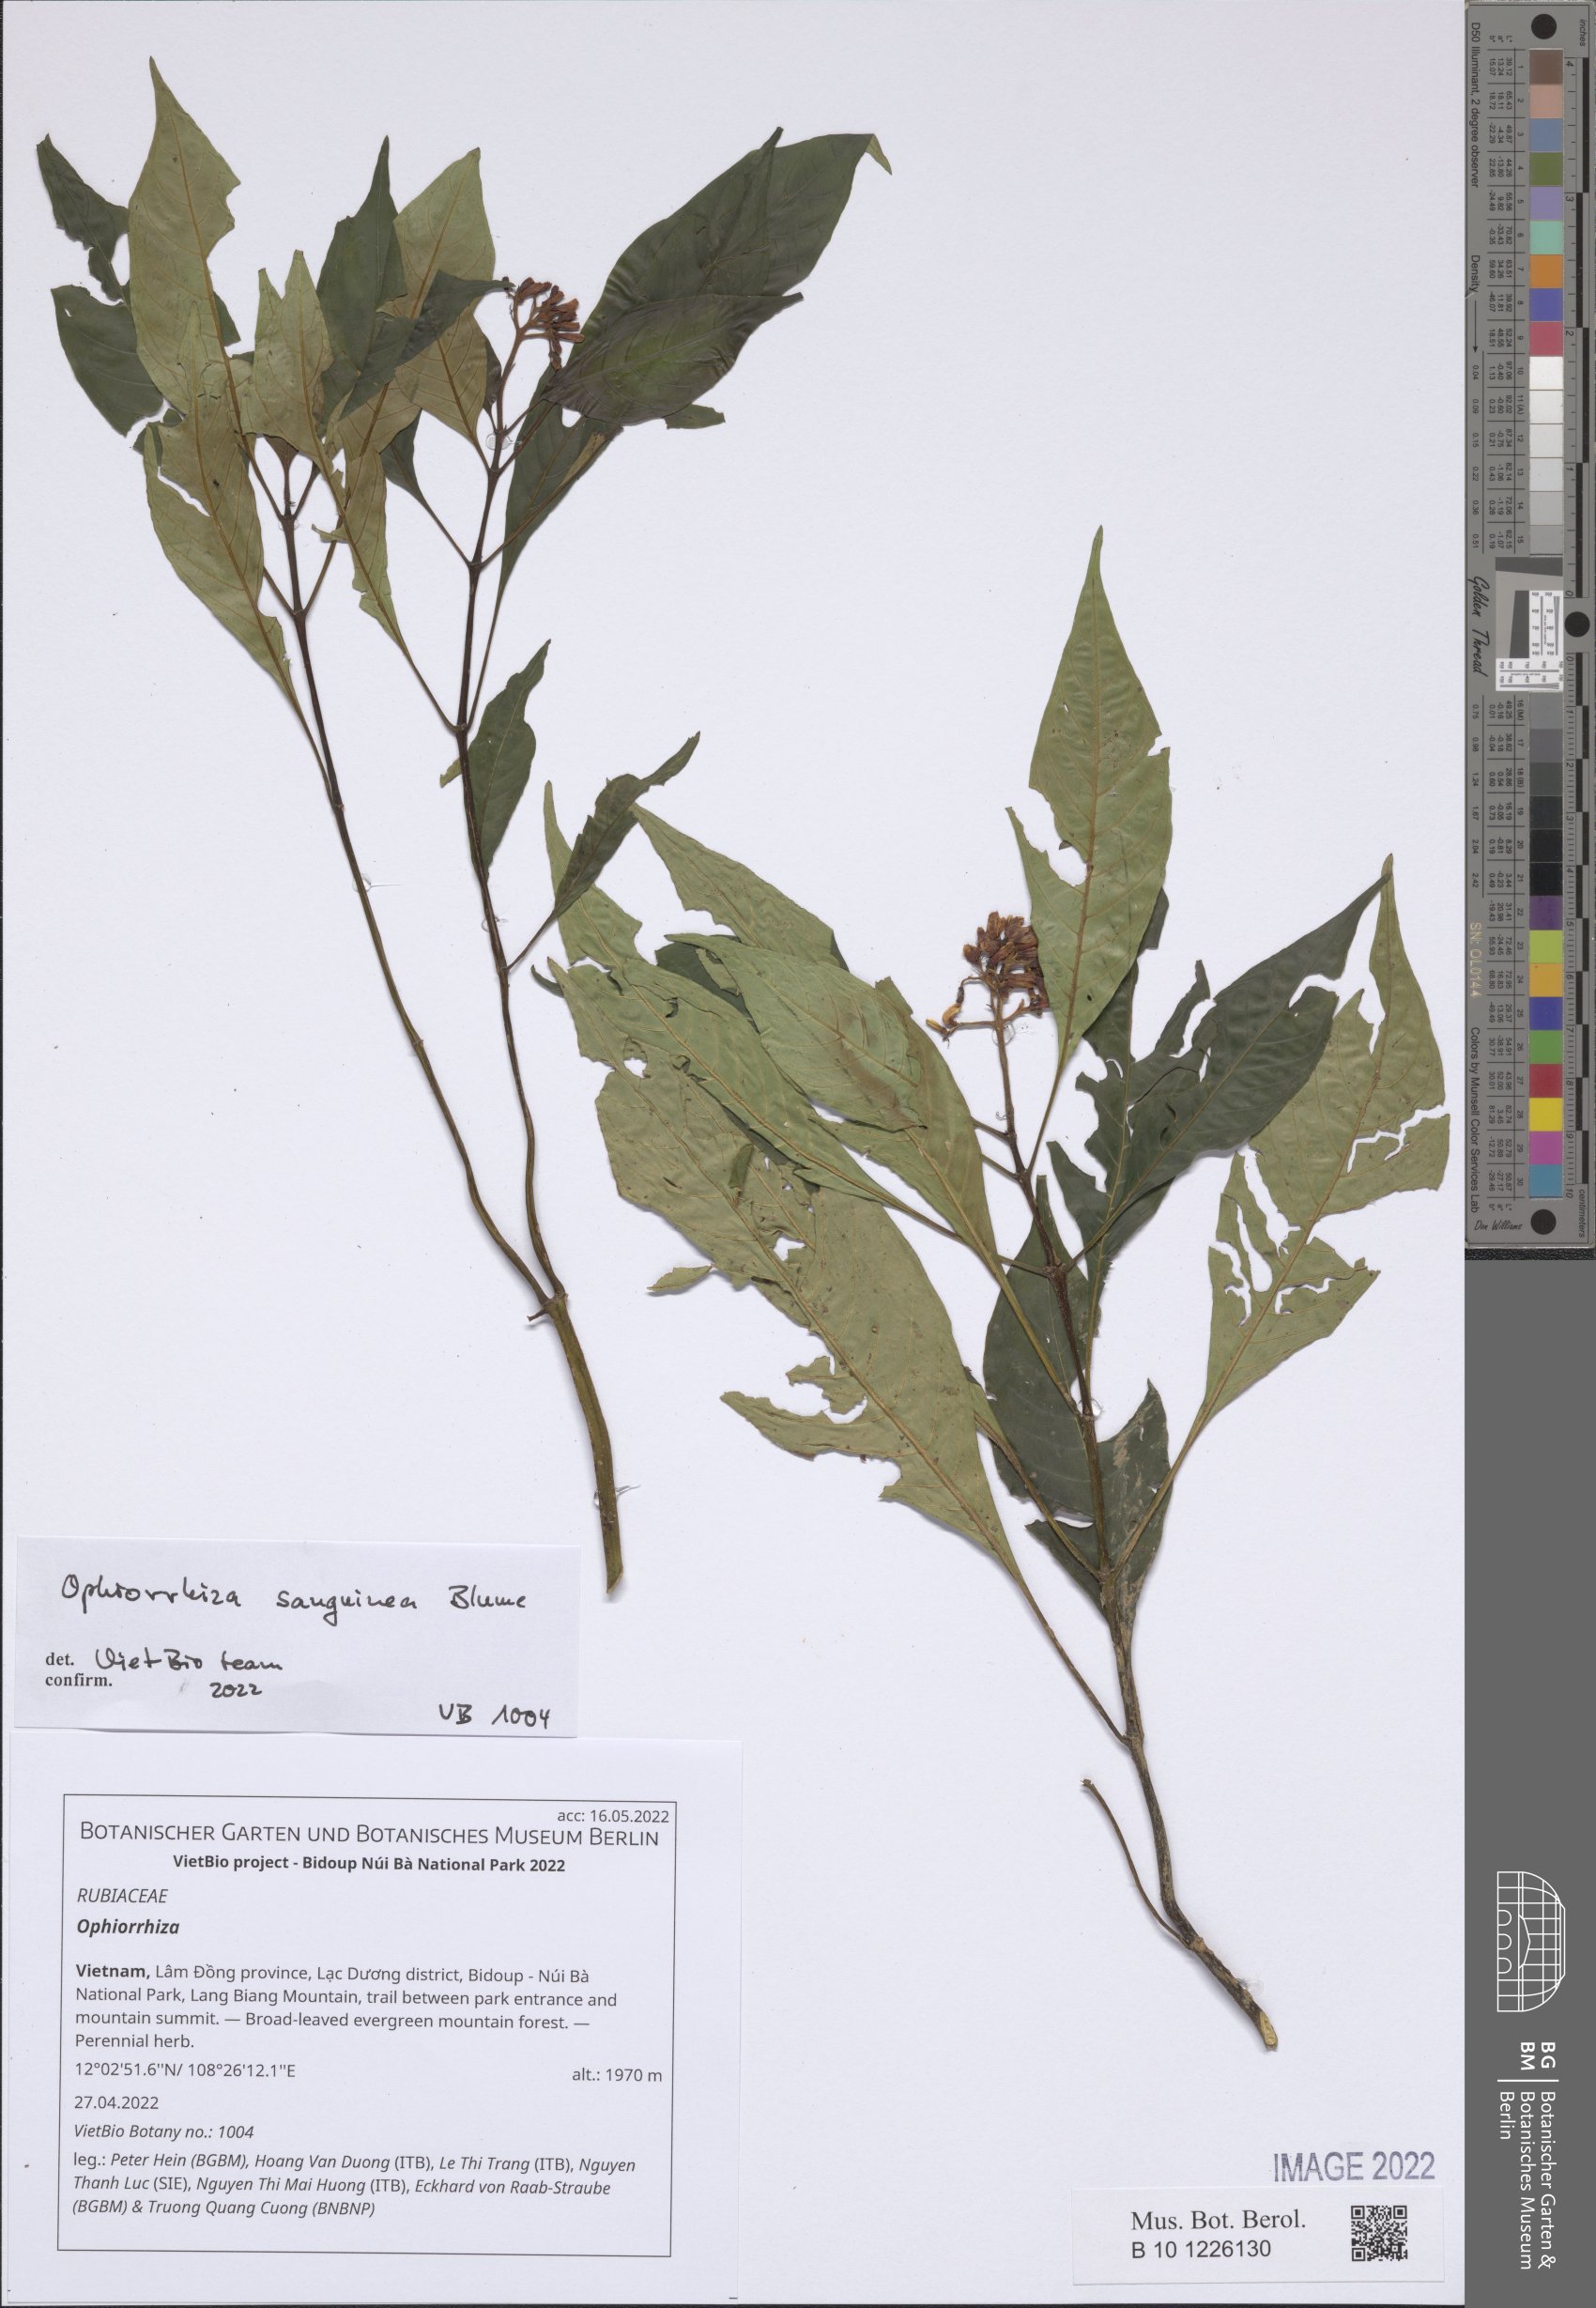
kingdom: Plantae
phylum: Tracheophyta
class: Magnoliopsida
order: Gentianales
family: Rubiaceae
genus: Ophiorrhiza
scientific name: Ophiorrhiza
